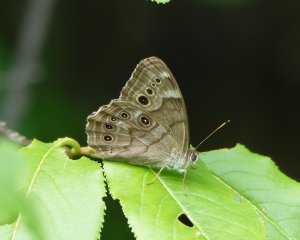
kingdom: Animalia
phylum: Arthropoda
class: Insecta
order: Lepidoptera
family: Nymphalidae
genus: Lethe
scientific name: Lethe anthedon
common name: Northern Pearly-Eye
